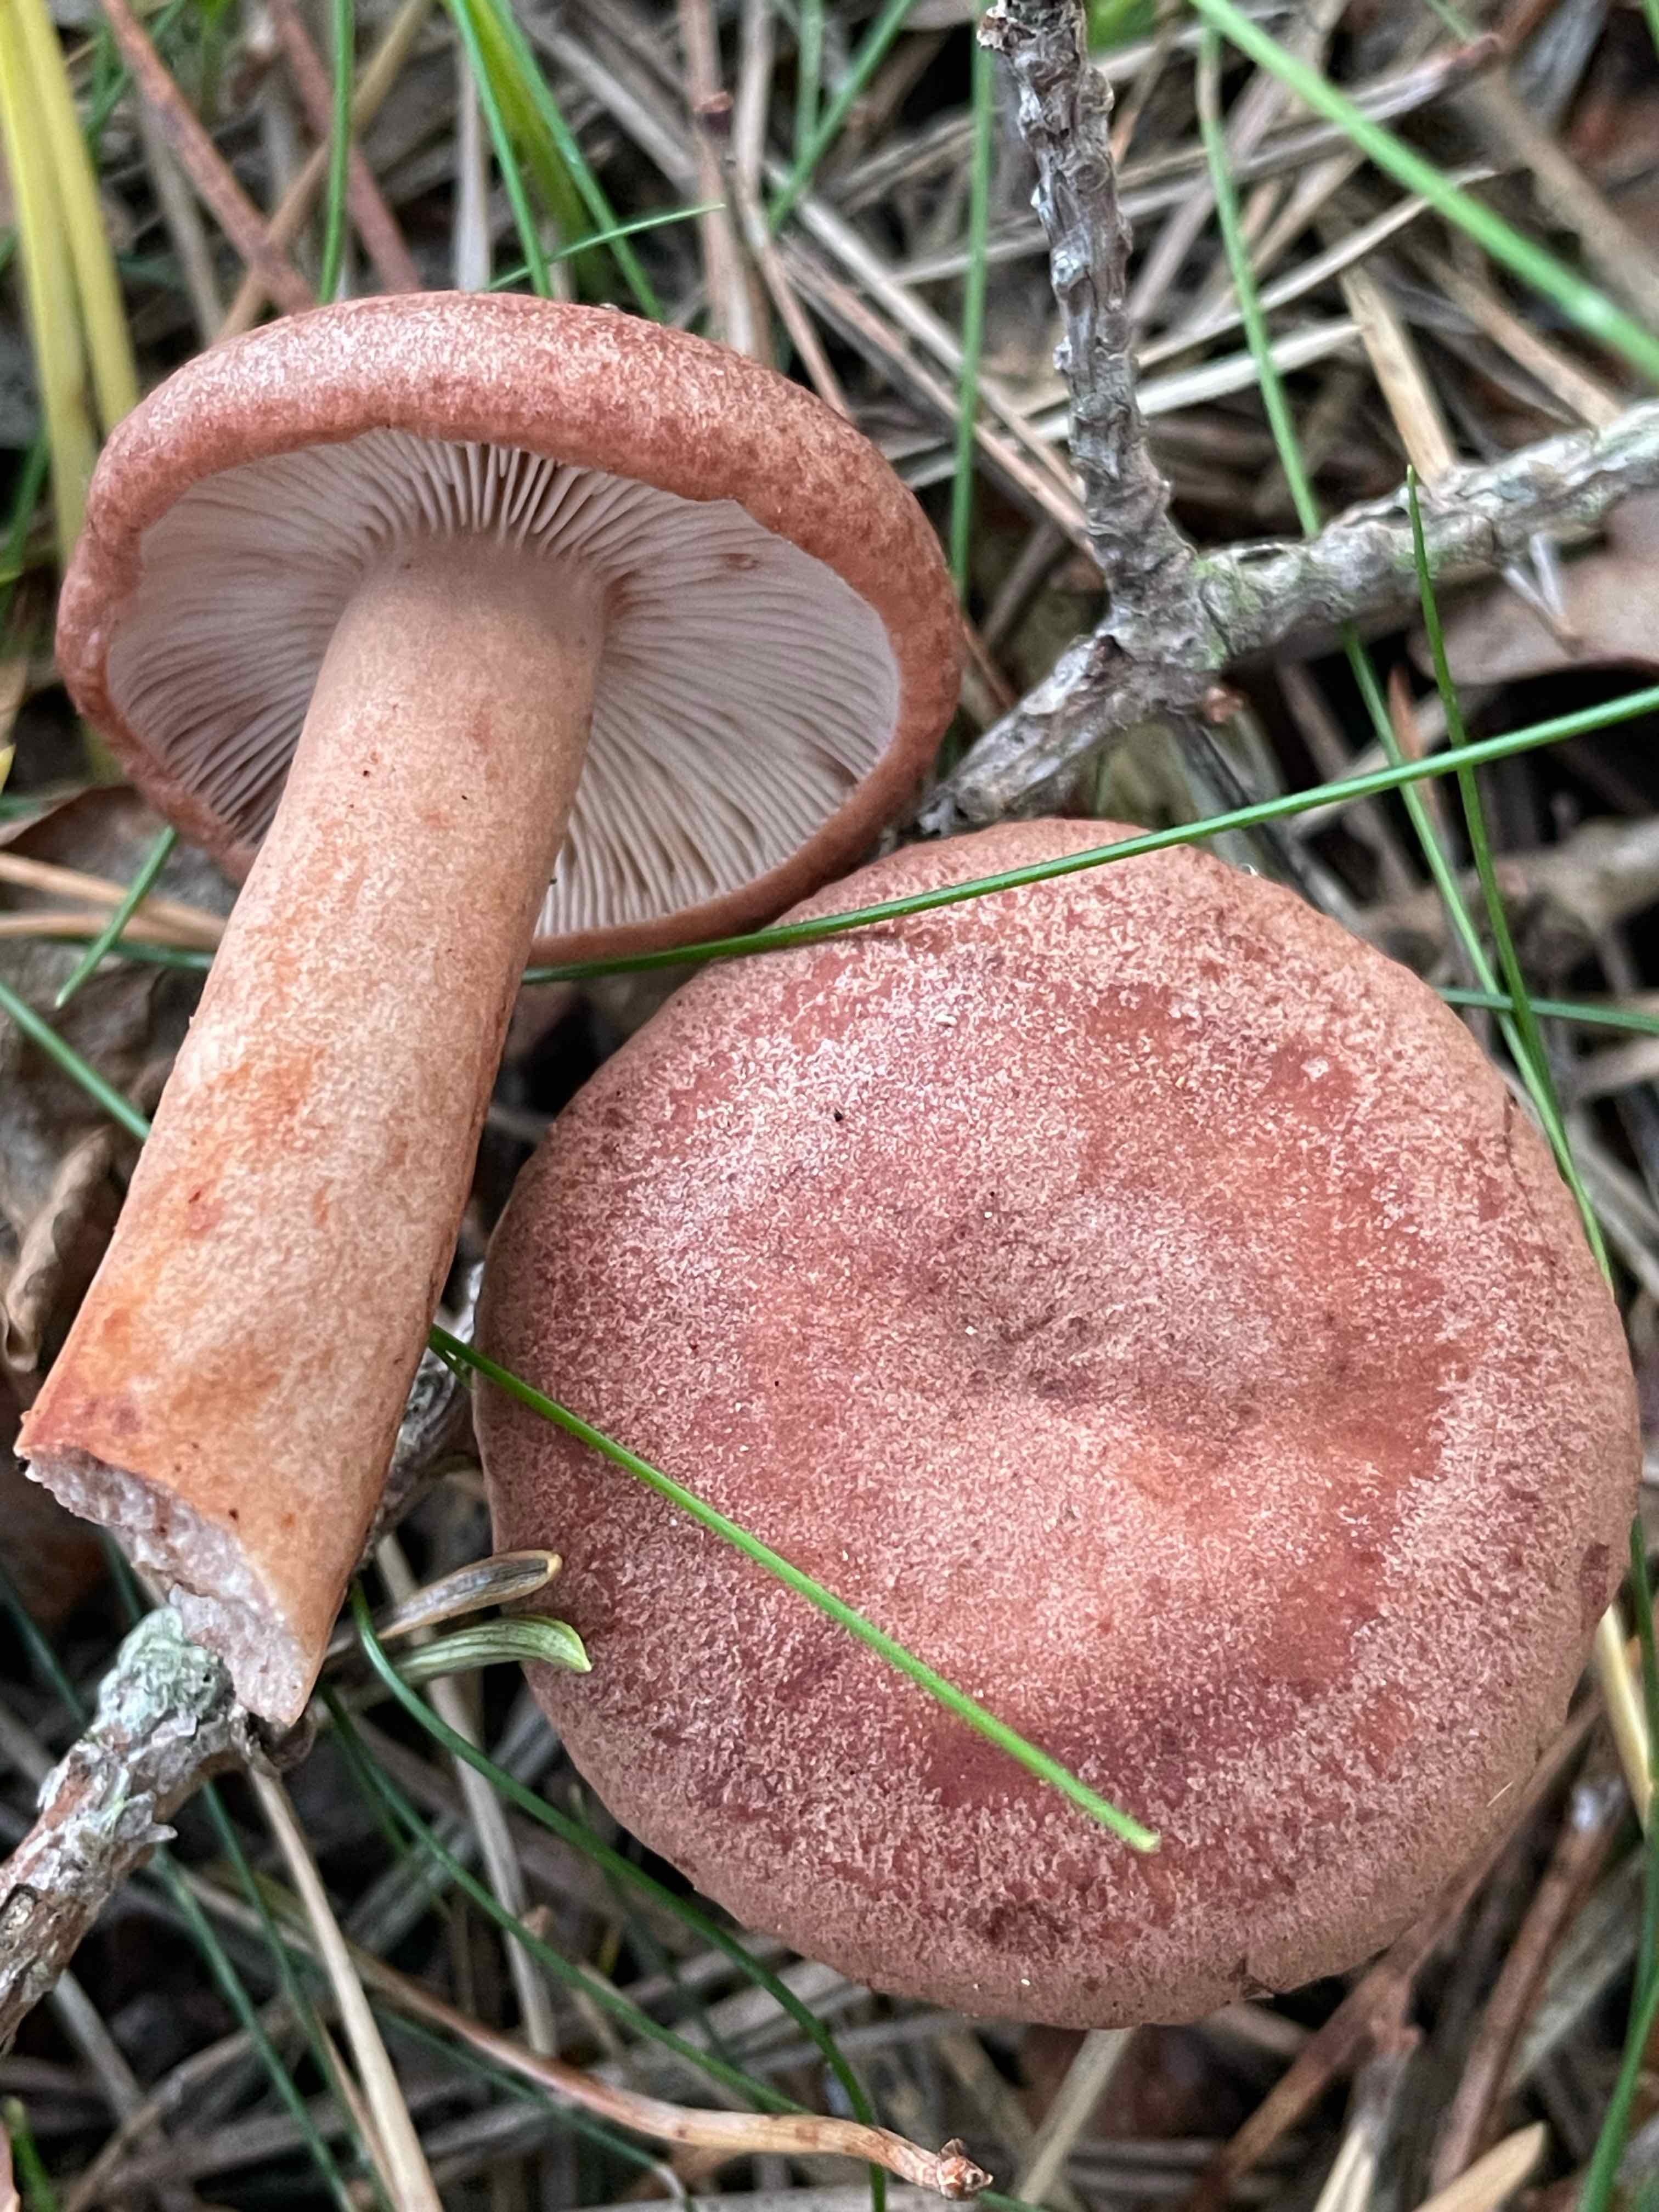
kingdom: Fungi
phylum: Basidiomycota
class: Agaricomycetes
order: Russulales
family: Russulaceae
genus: Lactarius
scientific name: Lactarius quietus
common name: ege-mælkehat
